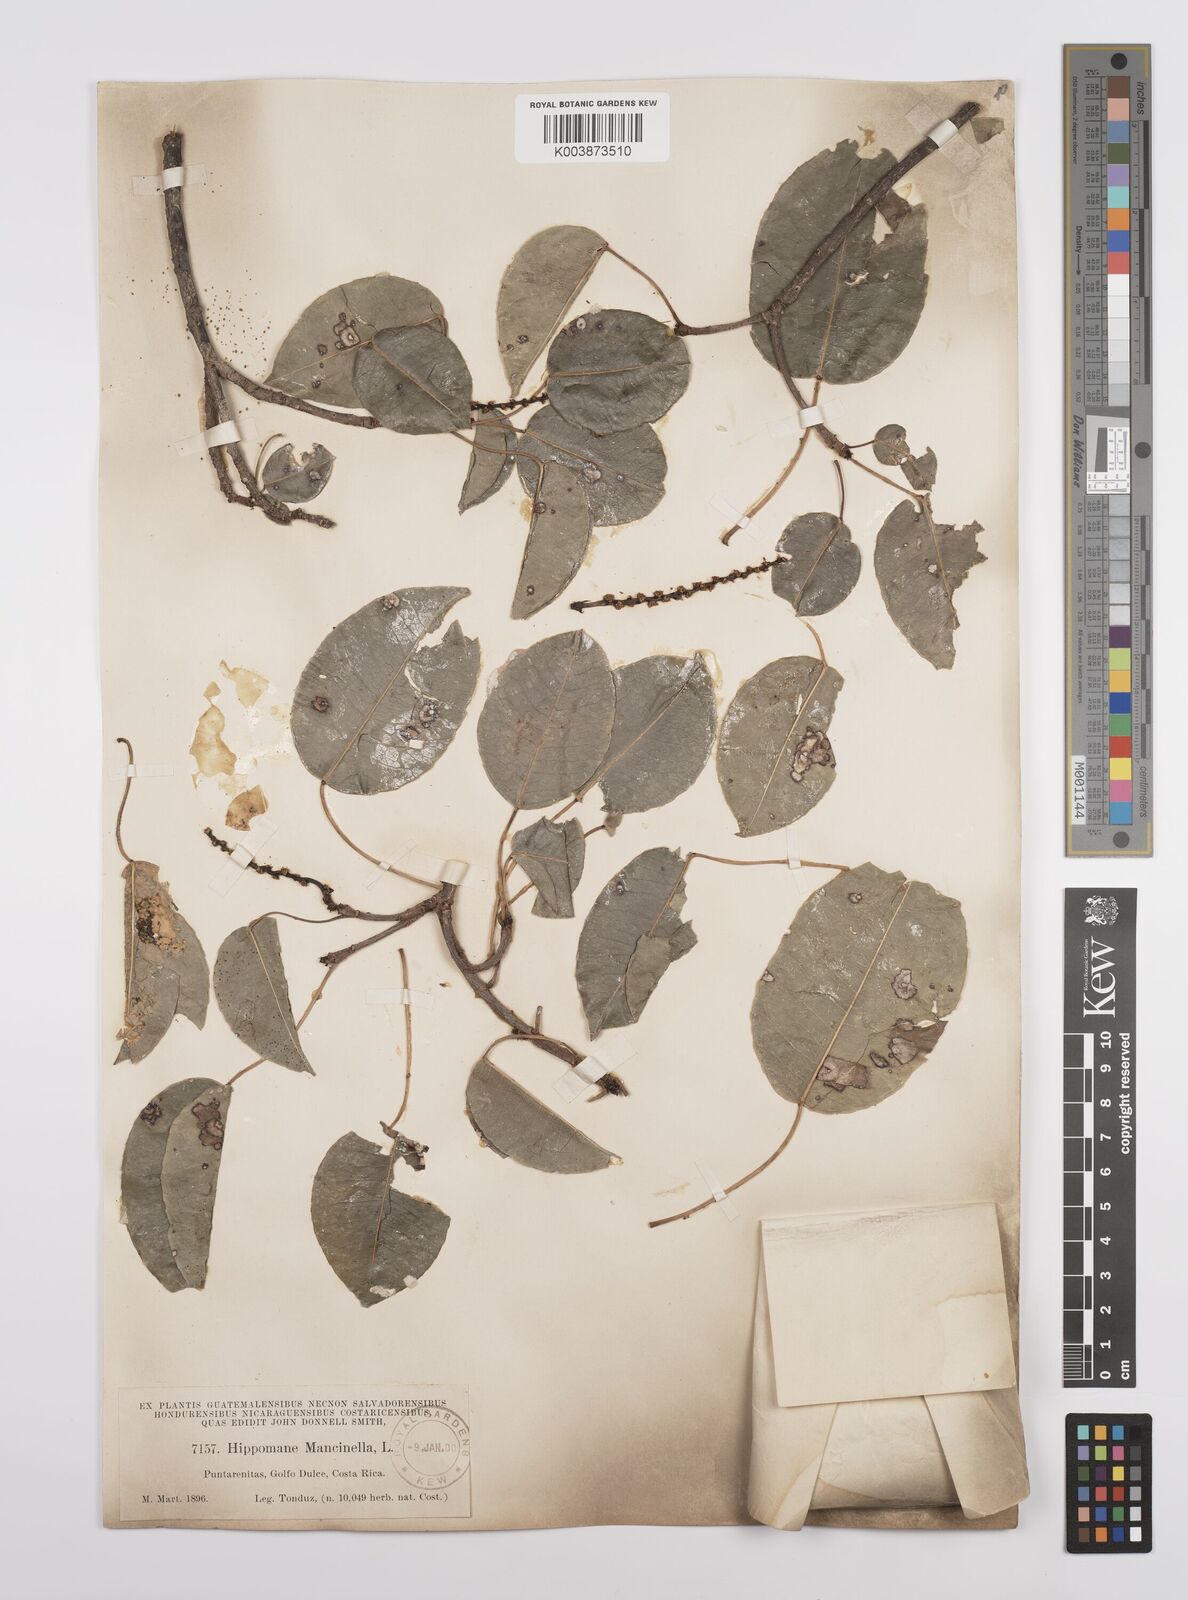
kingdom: Plantae
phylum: Tracheophyta
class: Magnoliopsida
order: Malpighiales
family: Euphorbiaceae
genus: Hippomane
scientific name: Hippomane mancinella
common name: Manchineel
